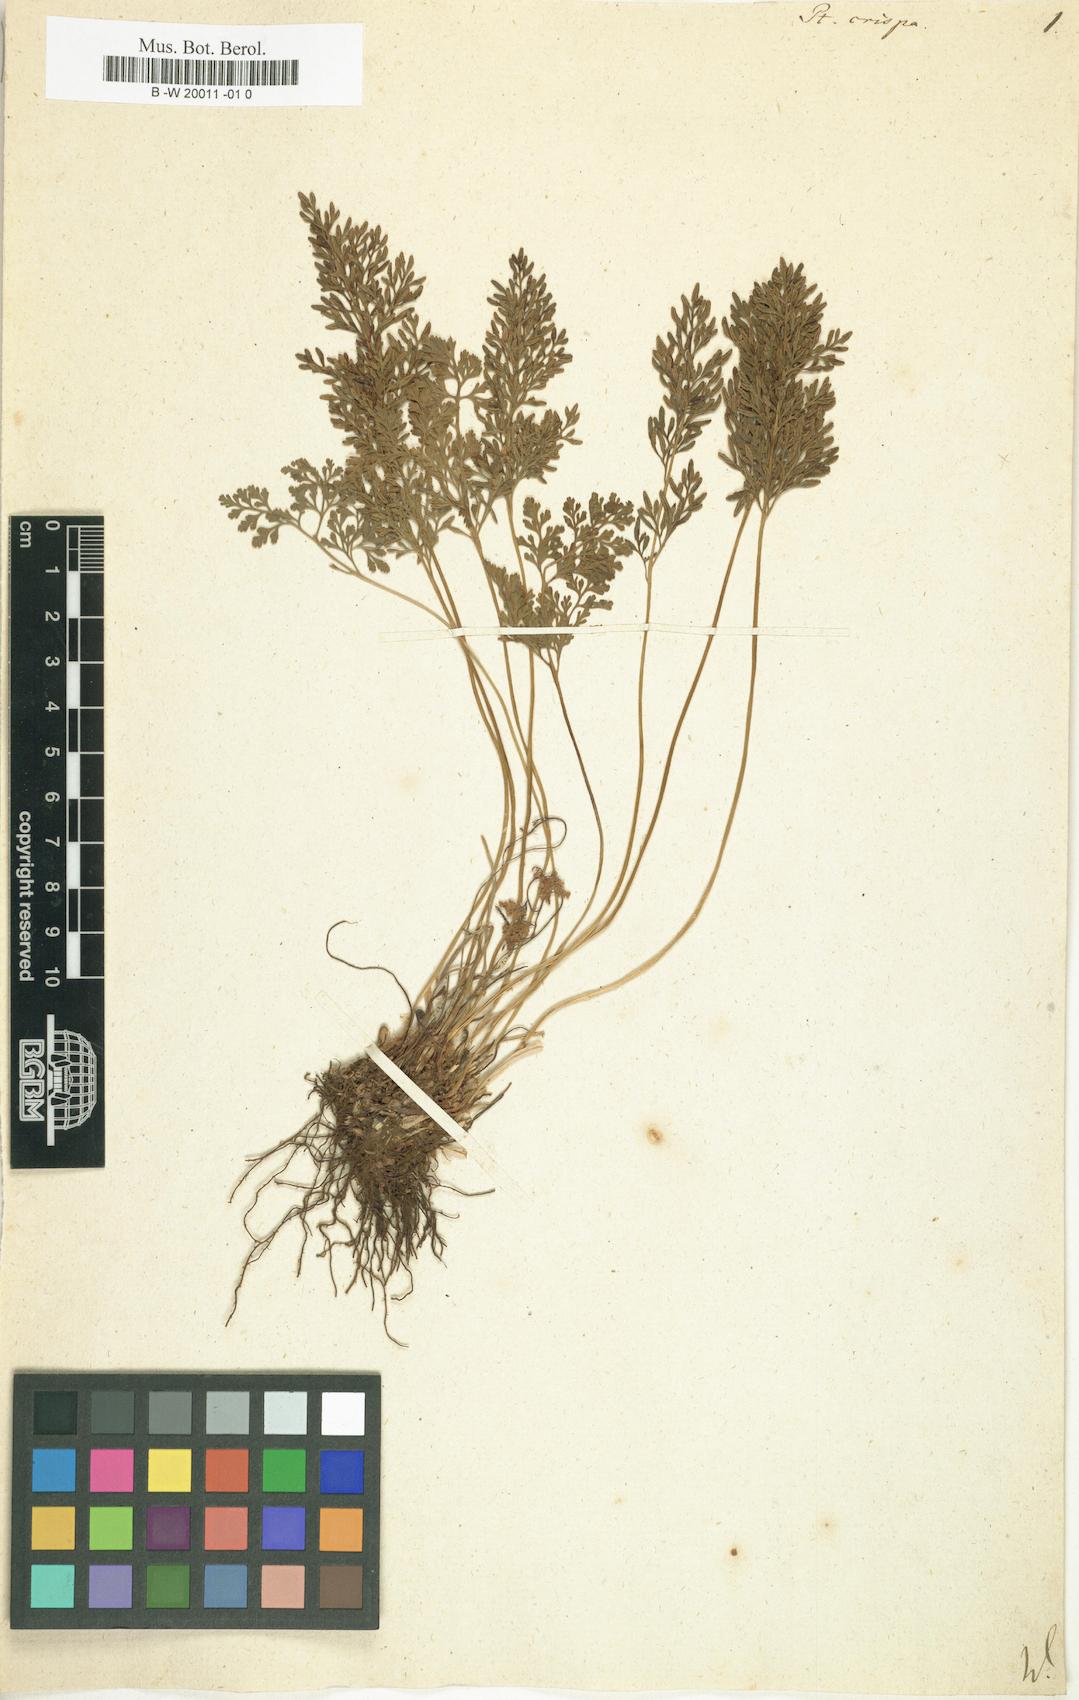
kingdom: Plantae
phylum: Tracheophyta
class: Polypodiopsida
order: Polypodiales
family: Pteridaceae
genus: Cryptogramma
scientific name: Cryptogramma crispa
